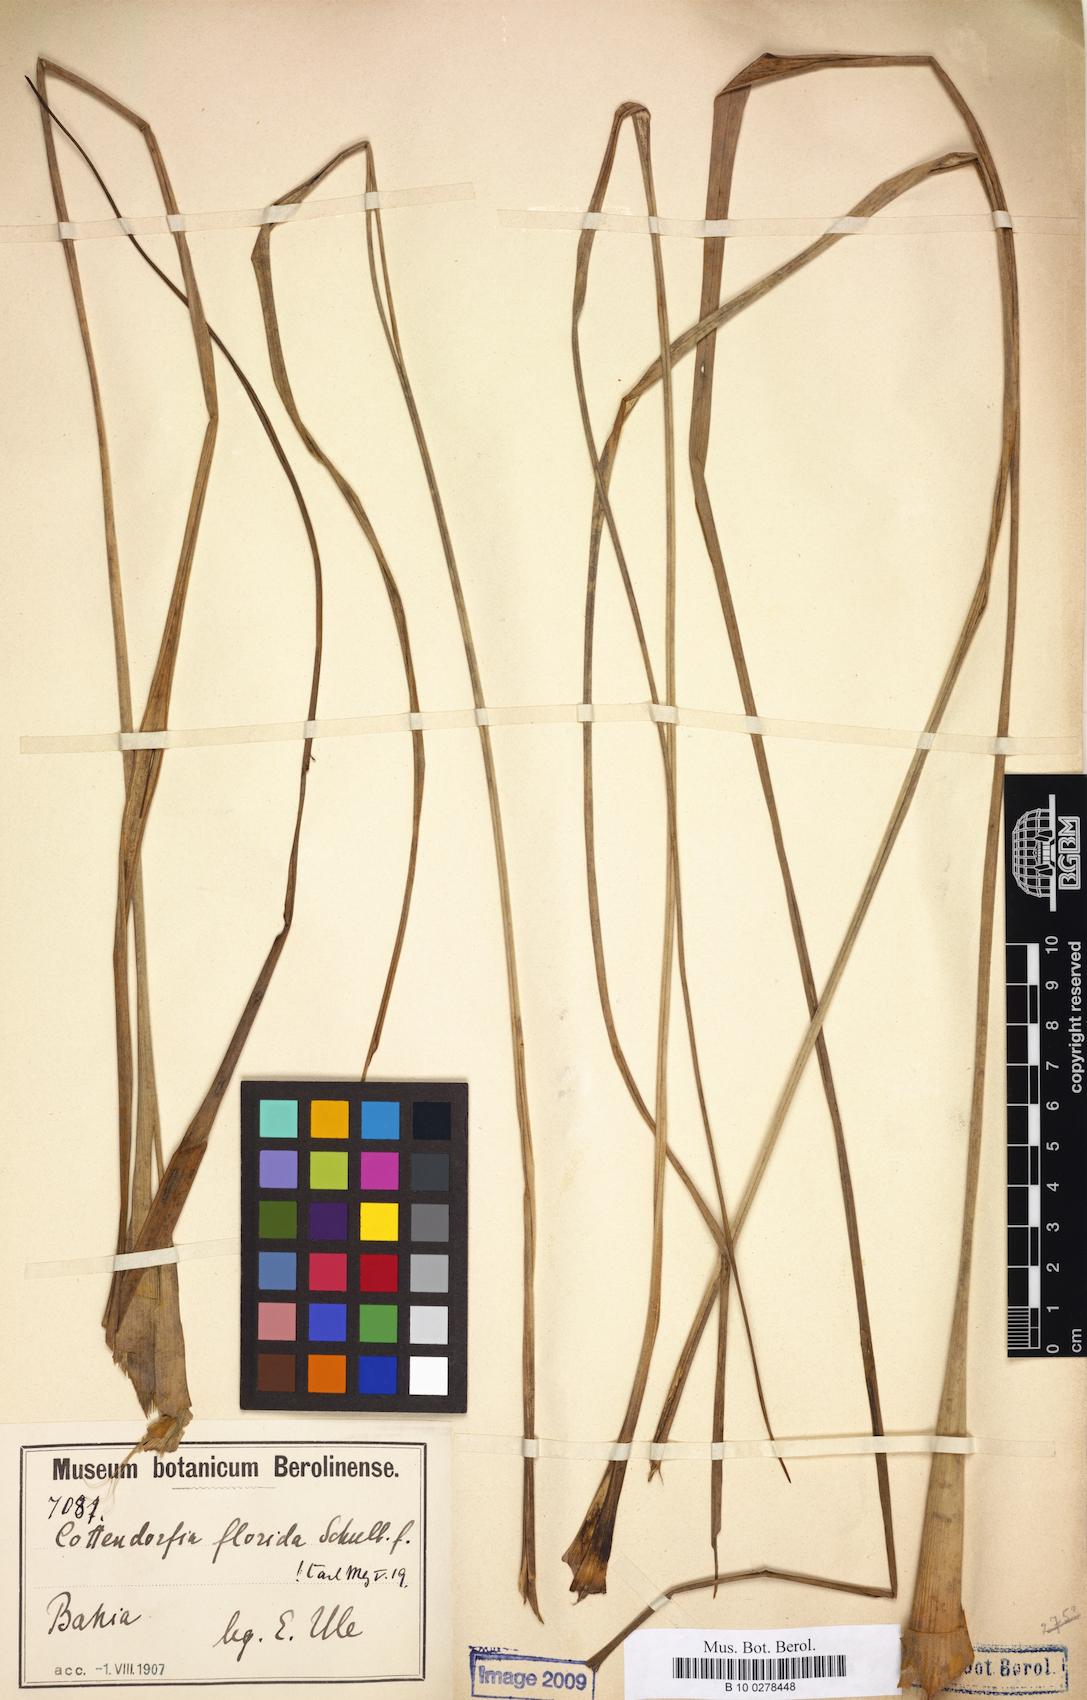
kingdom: Plantae
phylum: Tracheophyta
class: Liliopsida
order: Poales
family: Bromeliaceae
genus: Cottendorfia
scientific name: Cottendorfia florida
